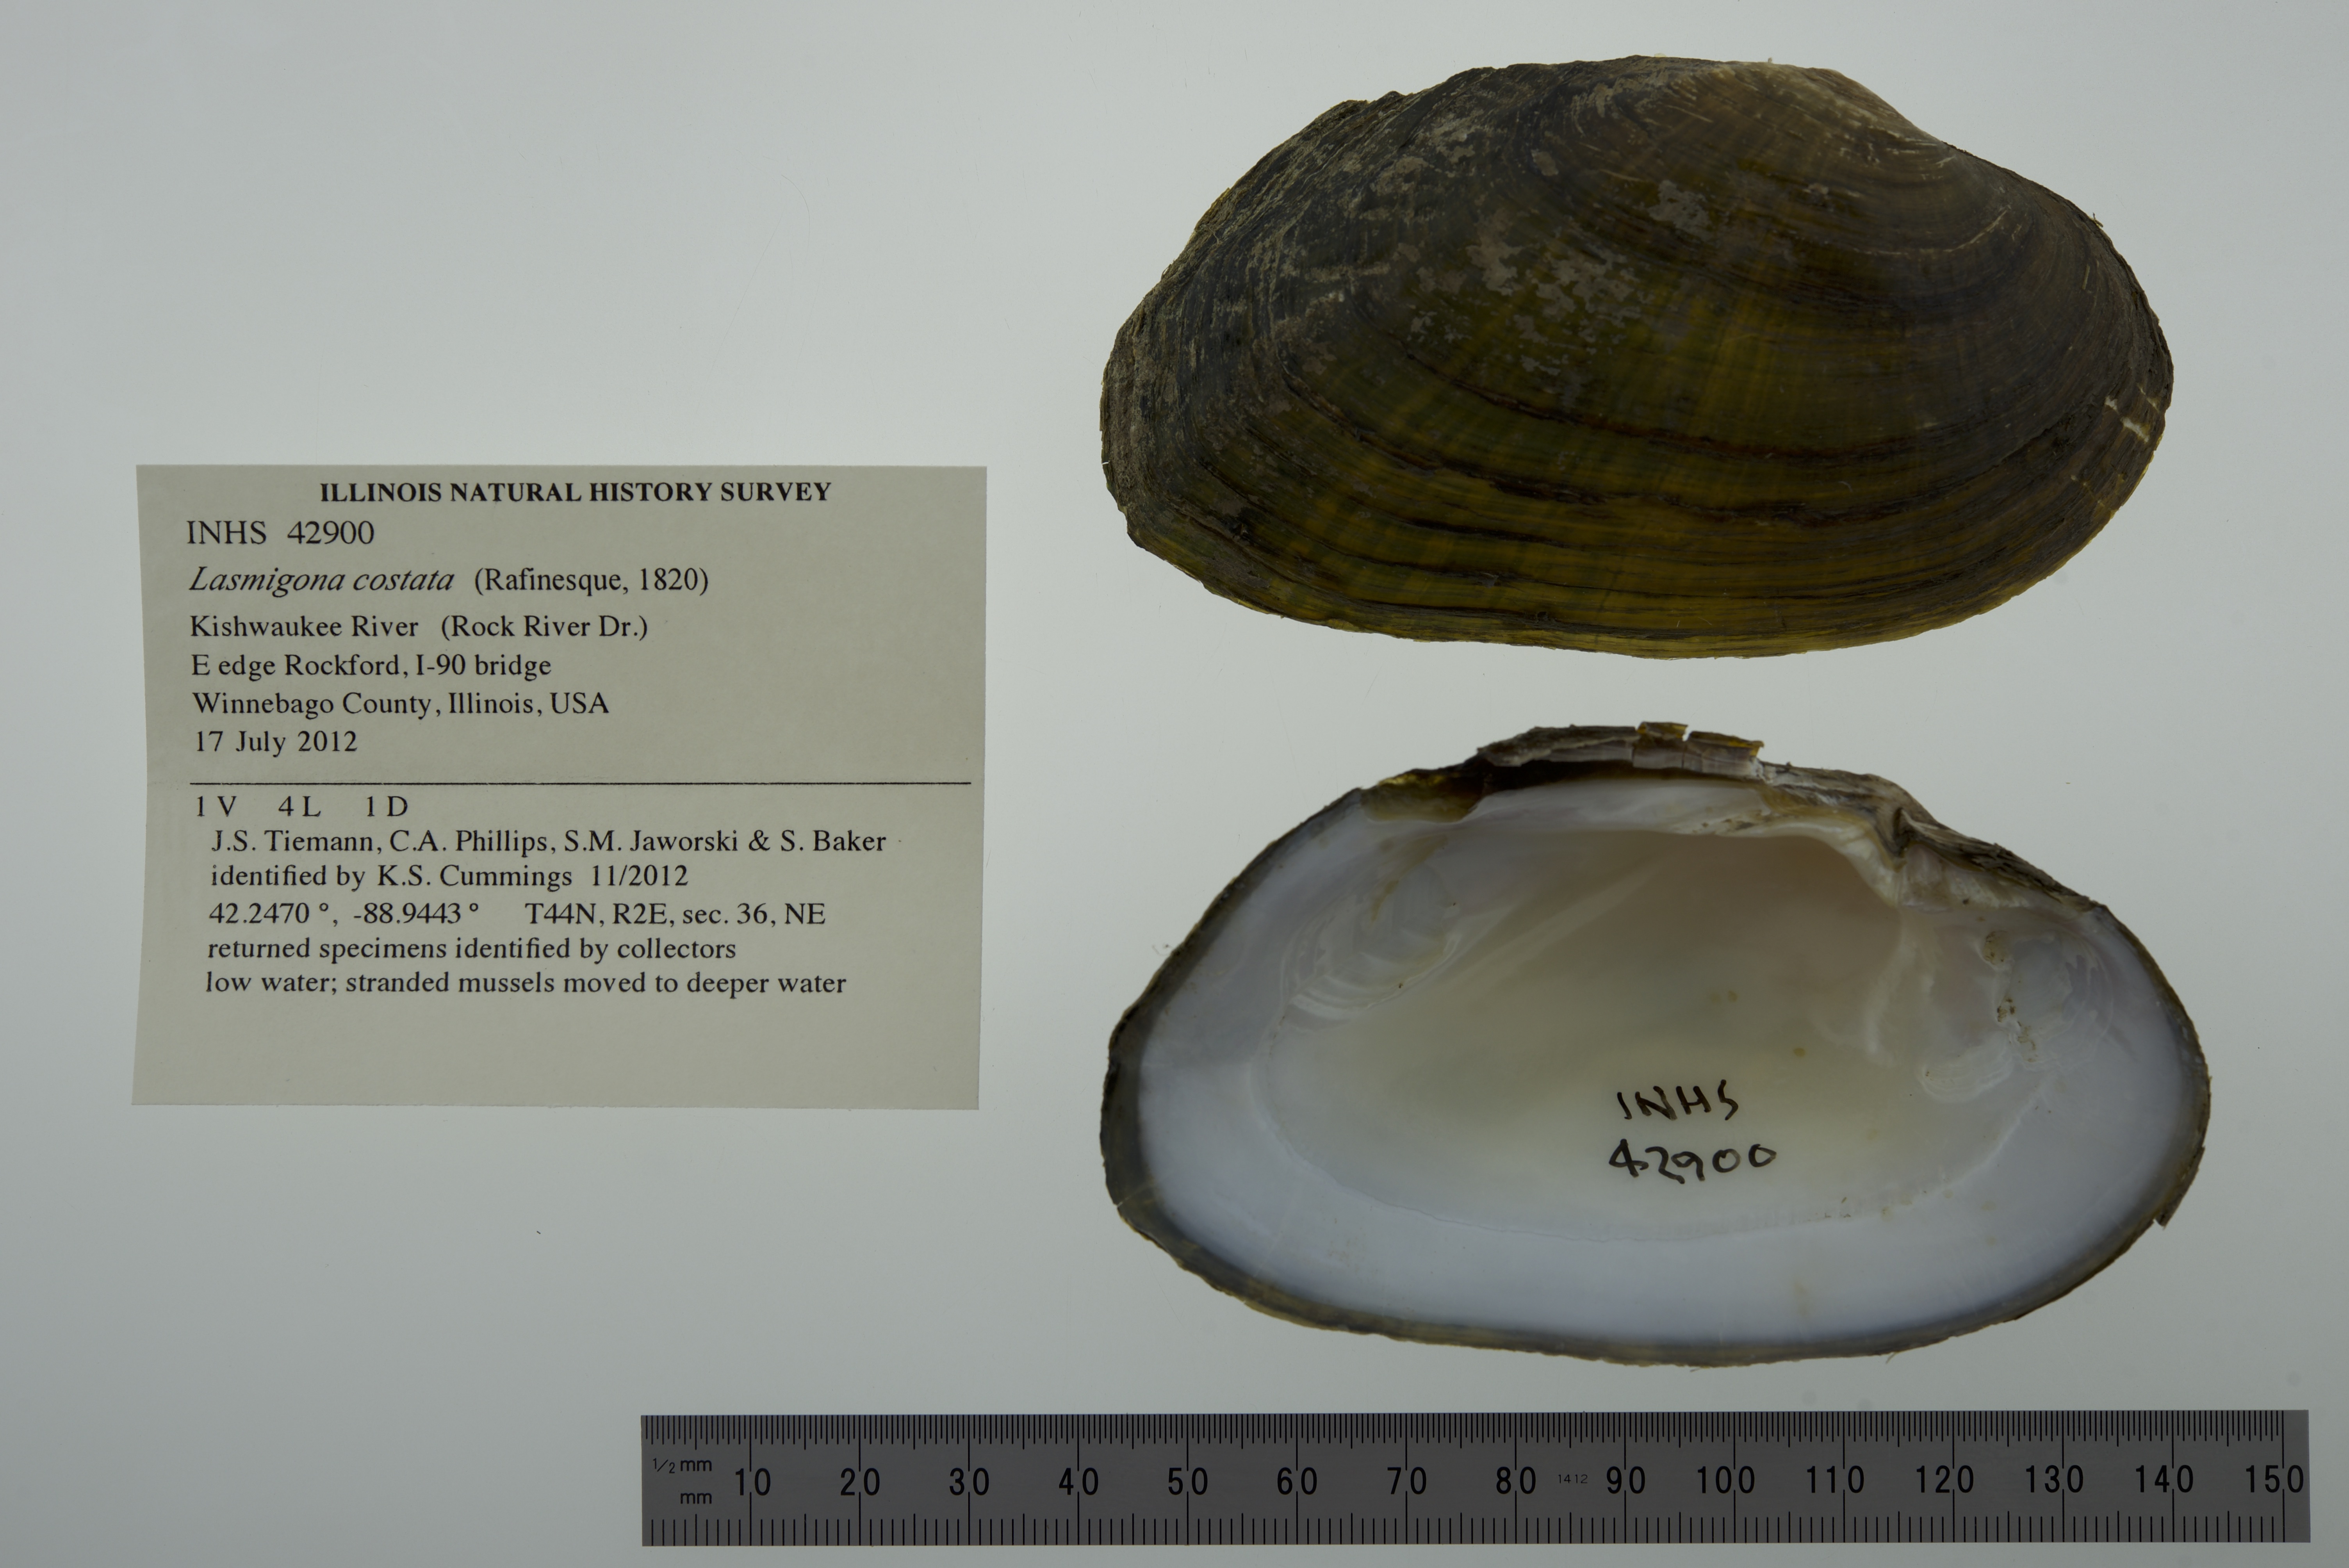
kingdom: Animalia
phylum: Mollusca
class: Bivalvia
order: Unionida
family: Unionidae
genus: Lasmigona
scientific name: Lasmigona costata
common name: Flutedshell
